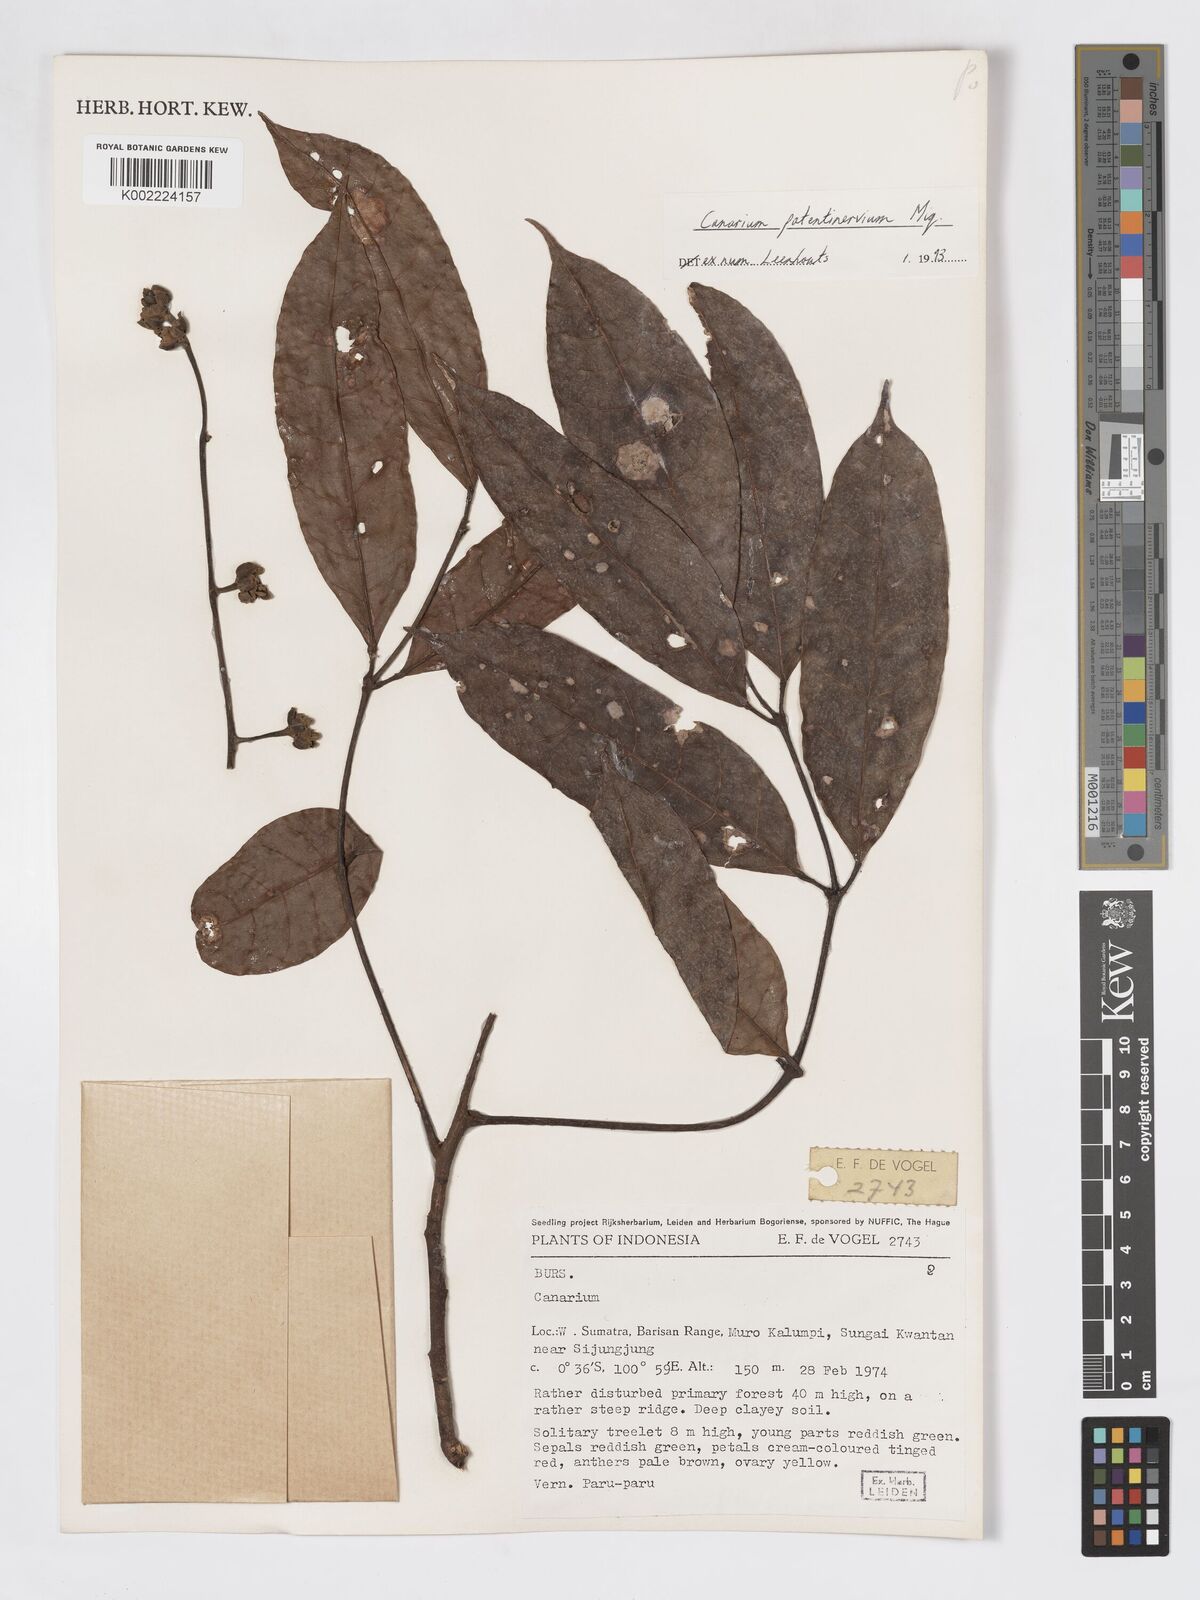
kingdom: Plantae
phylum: Tracheophyta
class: Magnoliopsida
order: Sapindales
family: Burseraceae
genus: Canarium
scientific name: Canarium patentinervium
